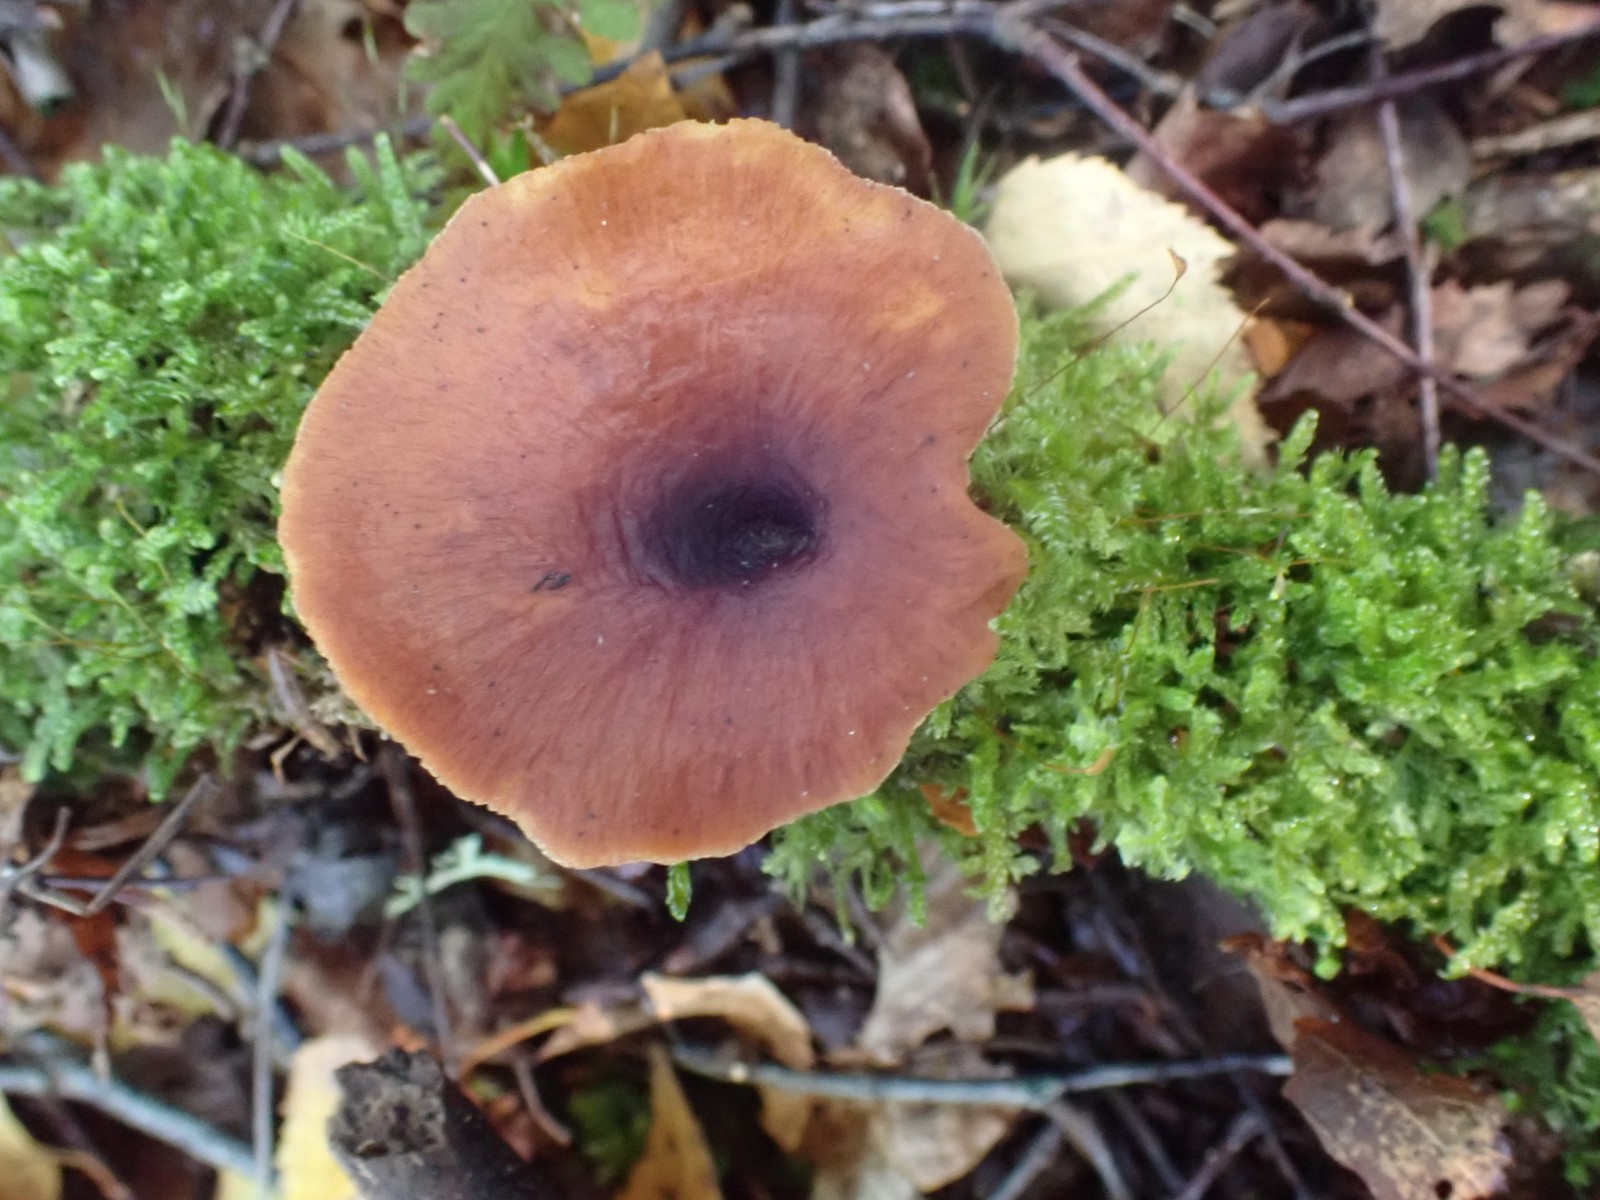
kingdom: Fungi
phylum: Basidiomycota
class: Agaricomycetes
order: Polyporales
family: Polyporaceae
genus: Picipes
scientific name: Picipes tubaeformis
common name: trompet-stilkporesvamp
